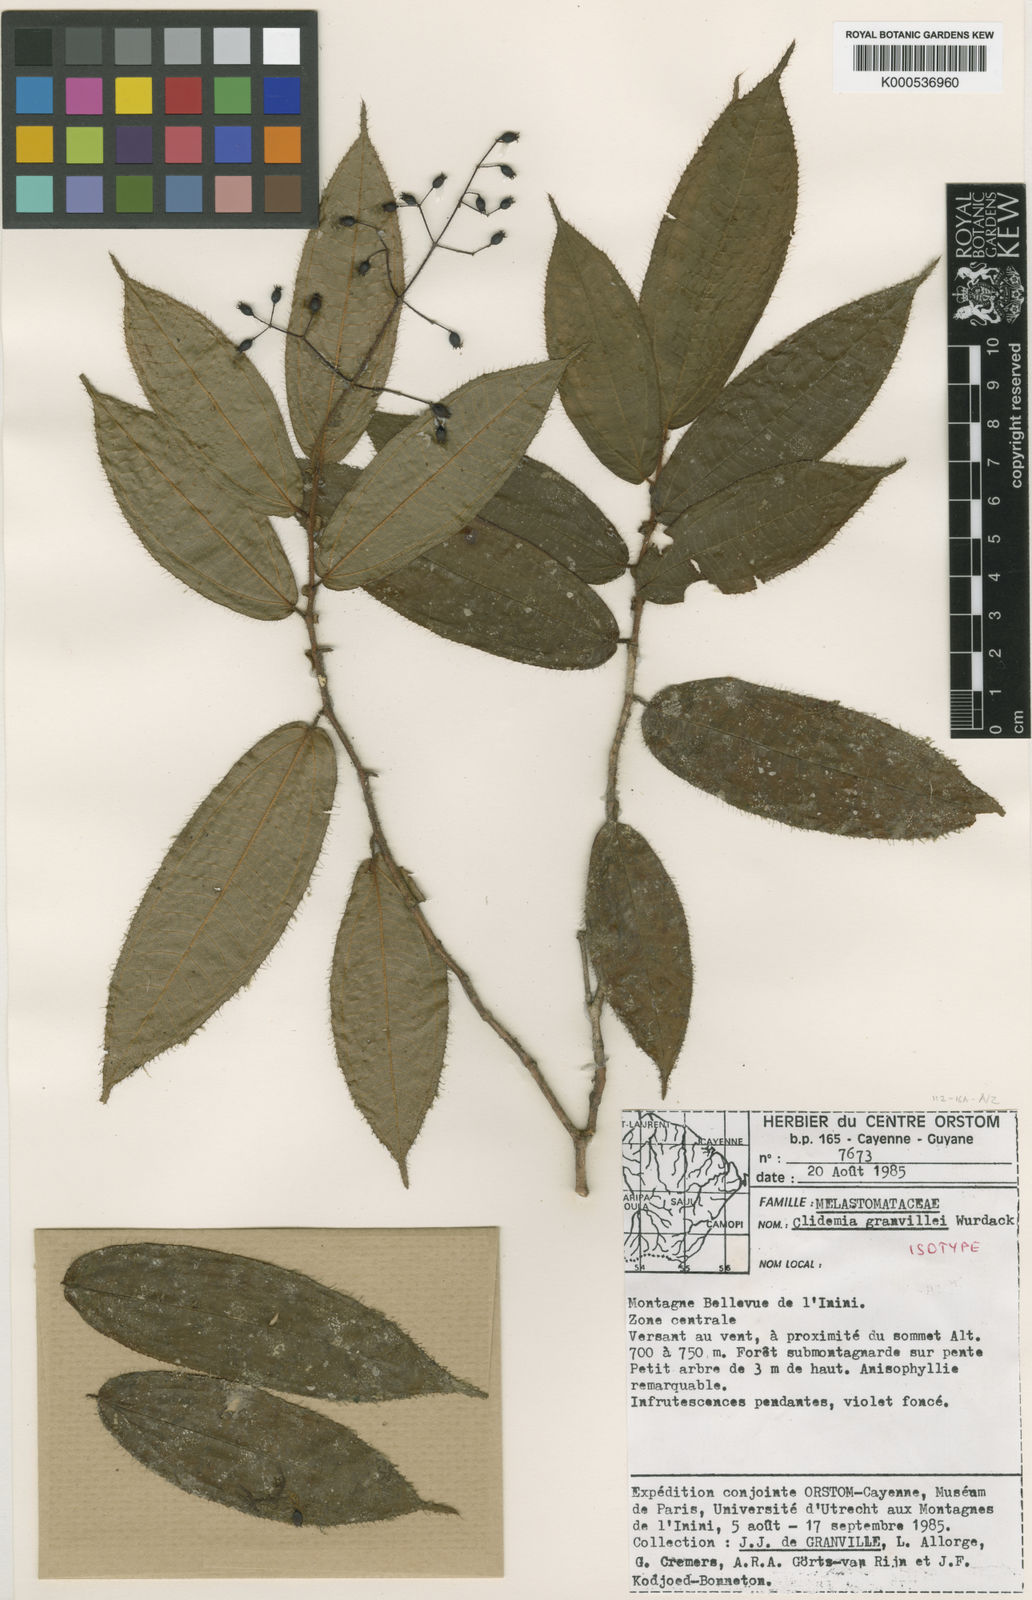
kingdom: Plantae
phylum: Tracheophyta
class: Magnoliopsida
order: Myrtales
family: Melastomataceae
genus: Miconia
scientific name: Miconia granvillei
